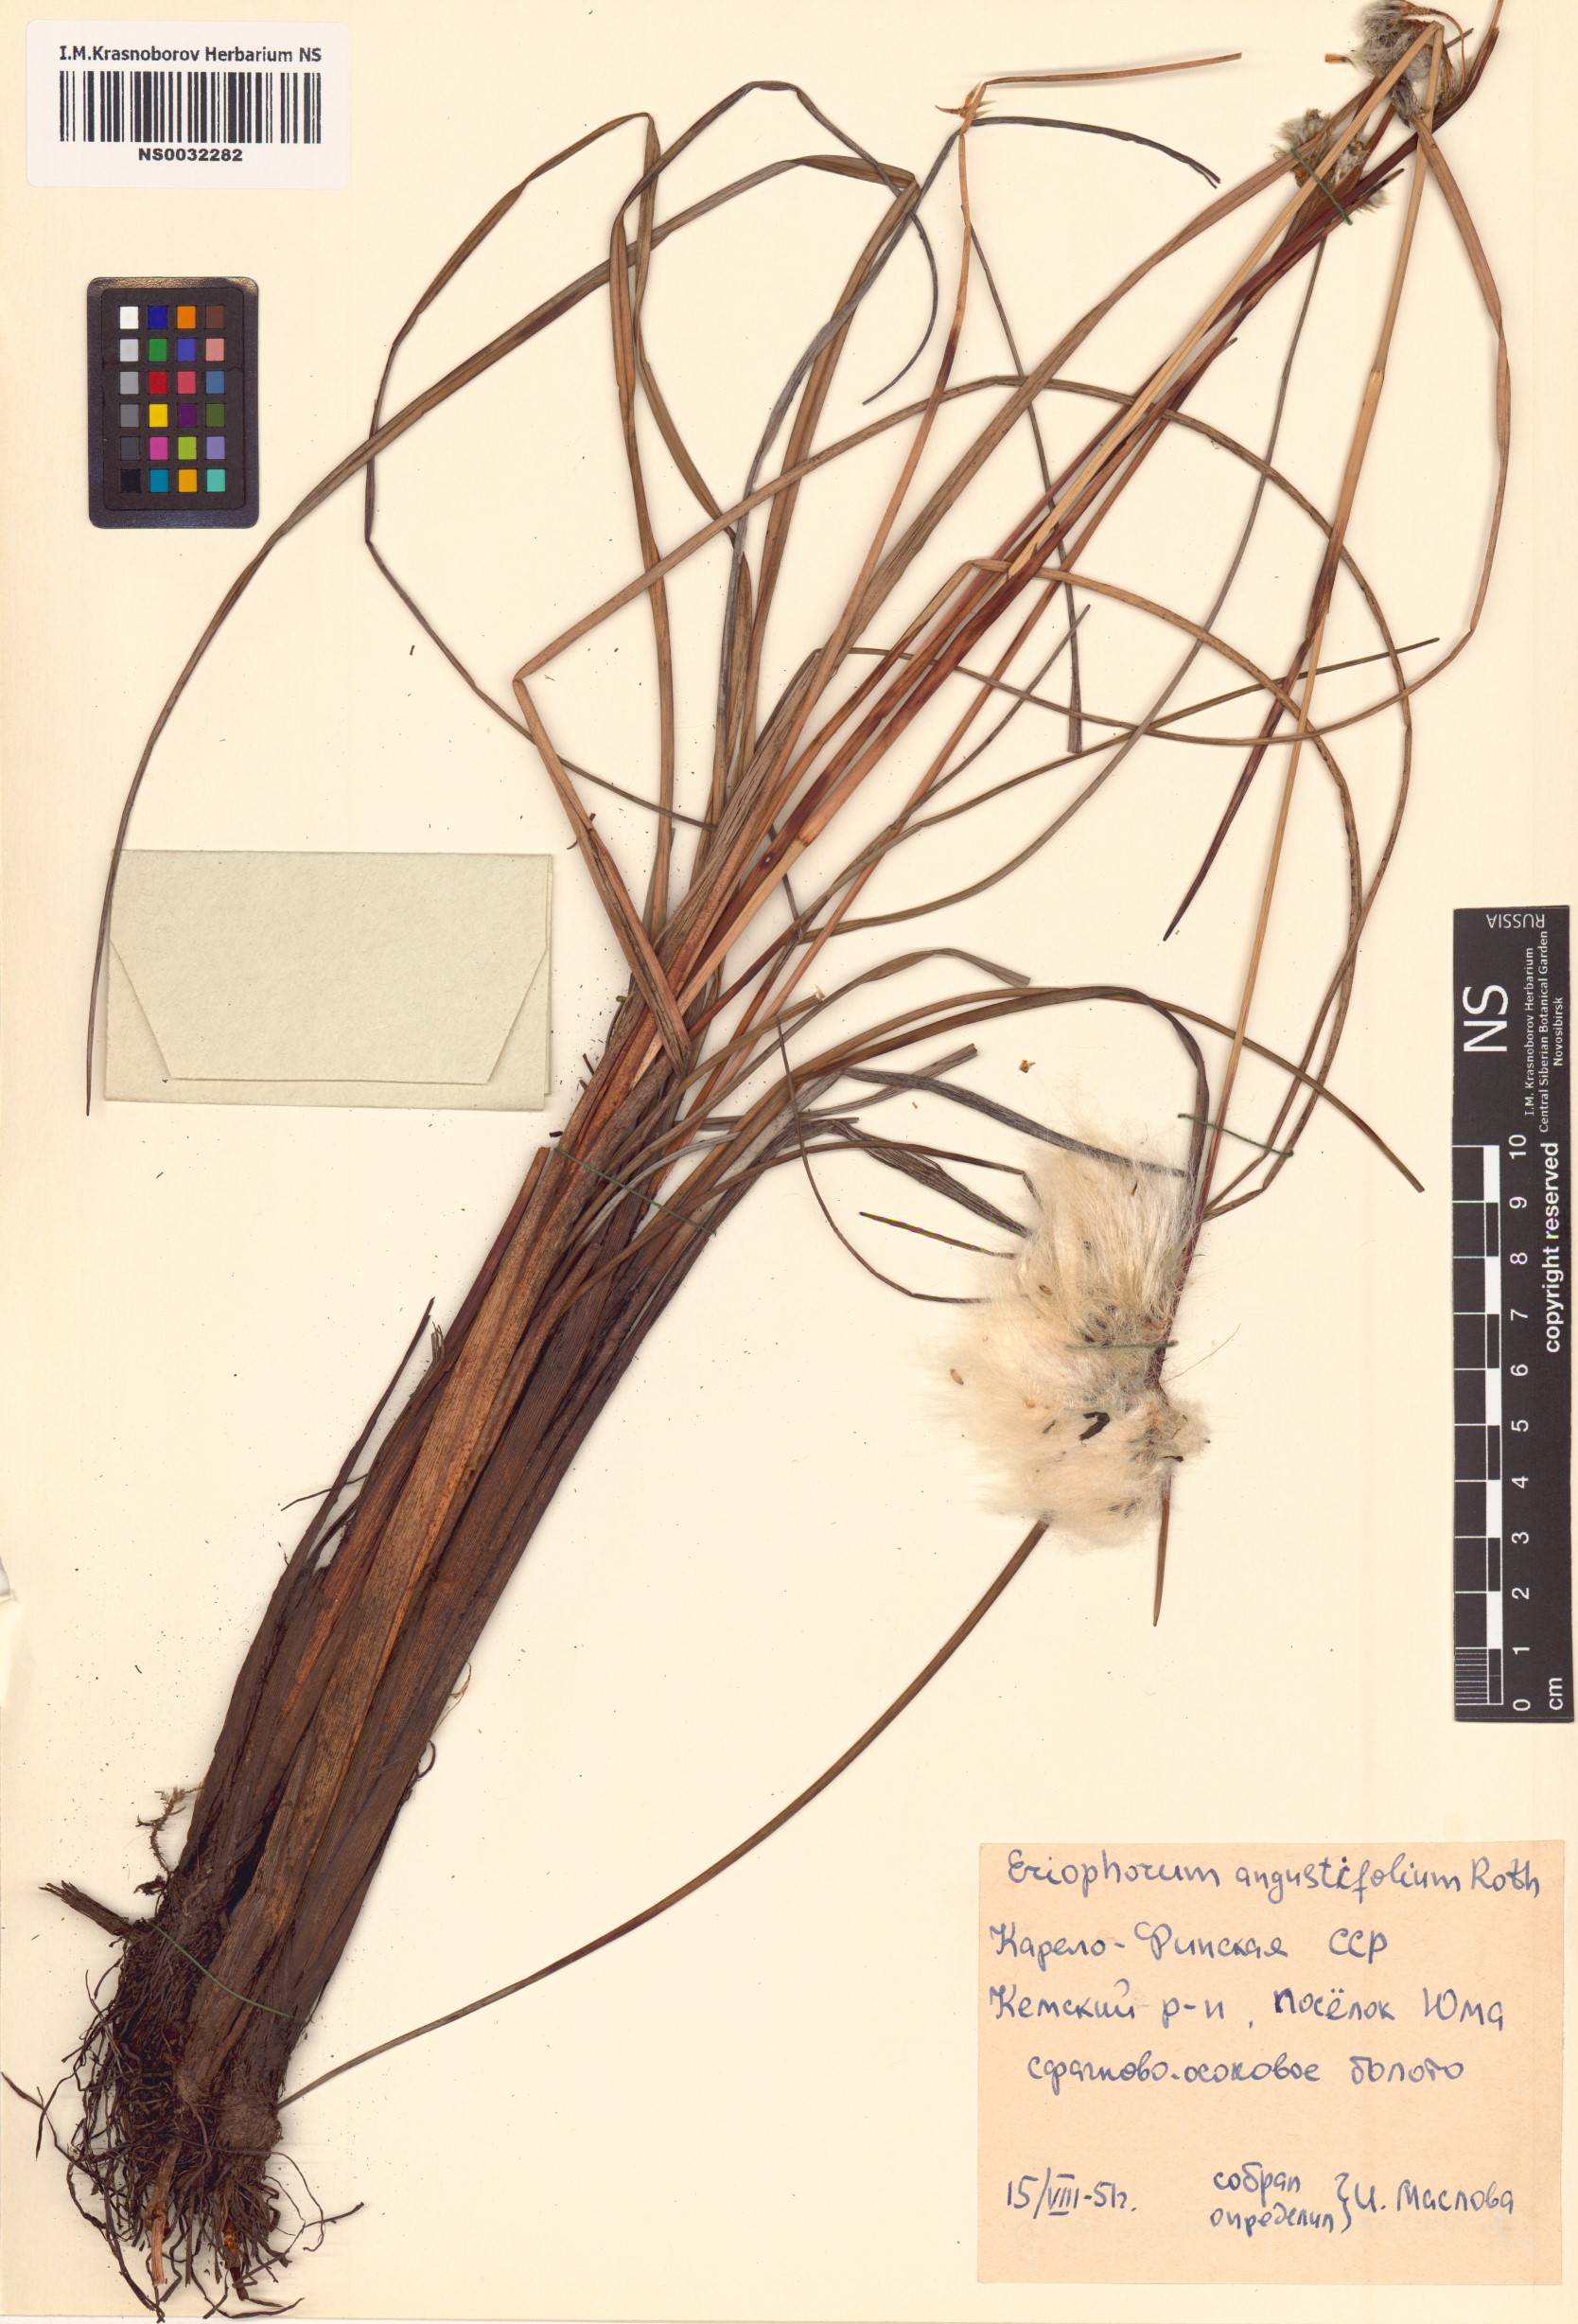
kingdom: Plantae
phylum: Tracheophyta
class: Liliopsida
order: Poales
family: Cyperaceae
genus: Eriophorum
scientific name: Eriophorum angustifolium
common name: Common cottongrass
